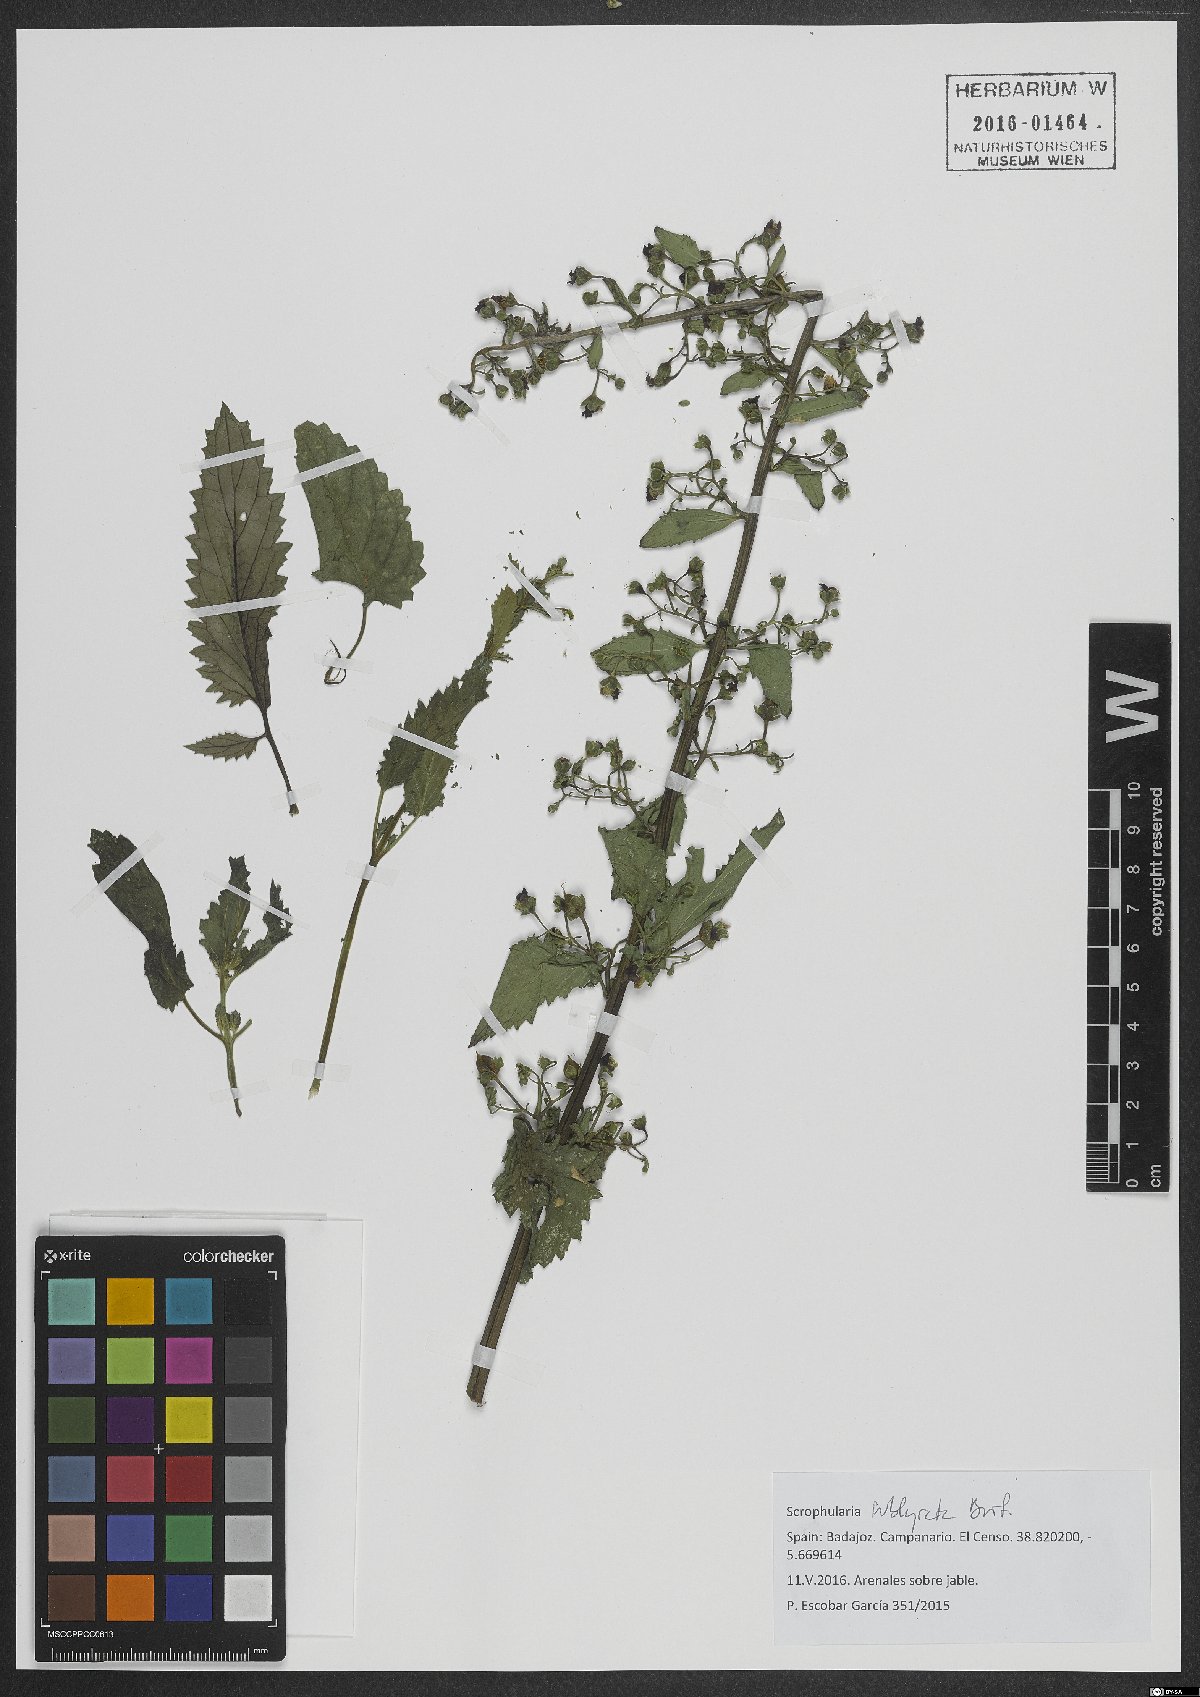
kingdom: Plantae
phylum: Tracheophyta
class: Magnoliopsida
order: Lamiales
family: Scrophulariaceae
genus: Scrophularia
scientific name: Scrophularia sublyrata
